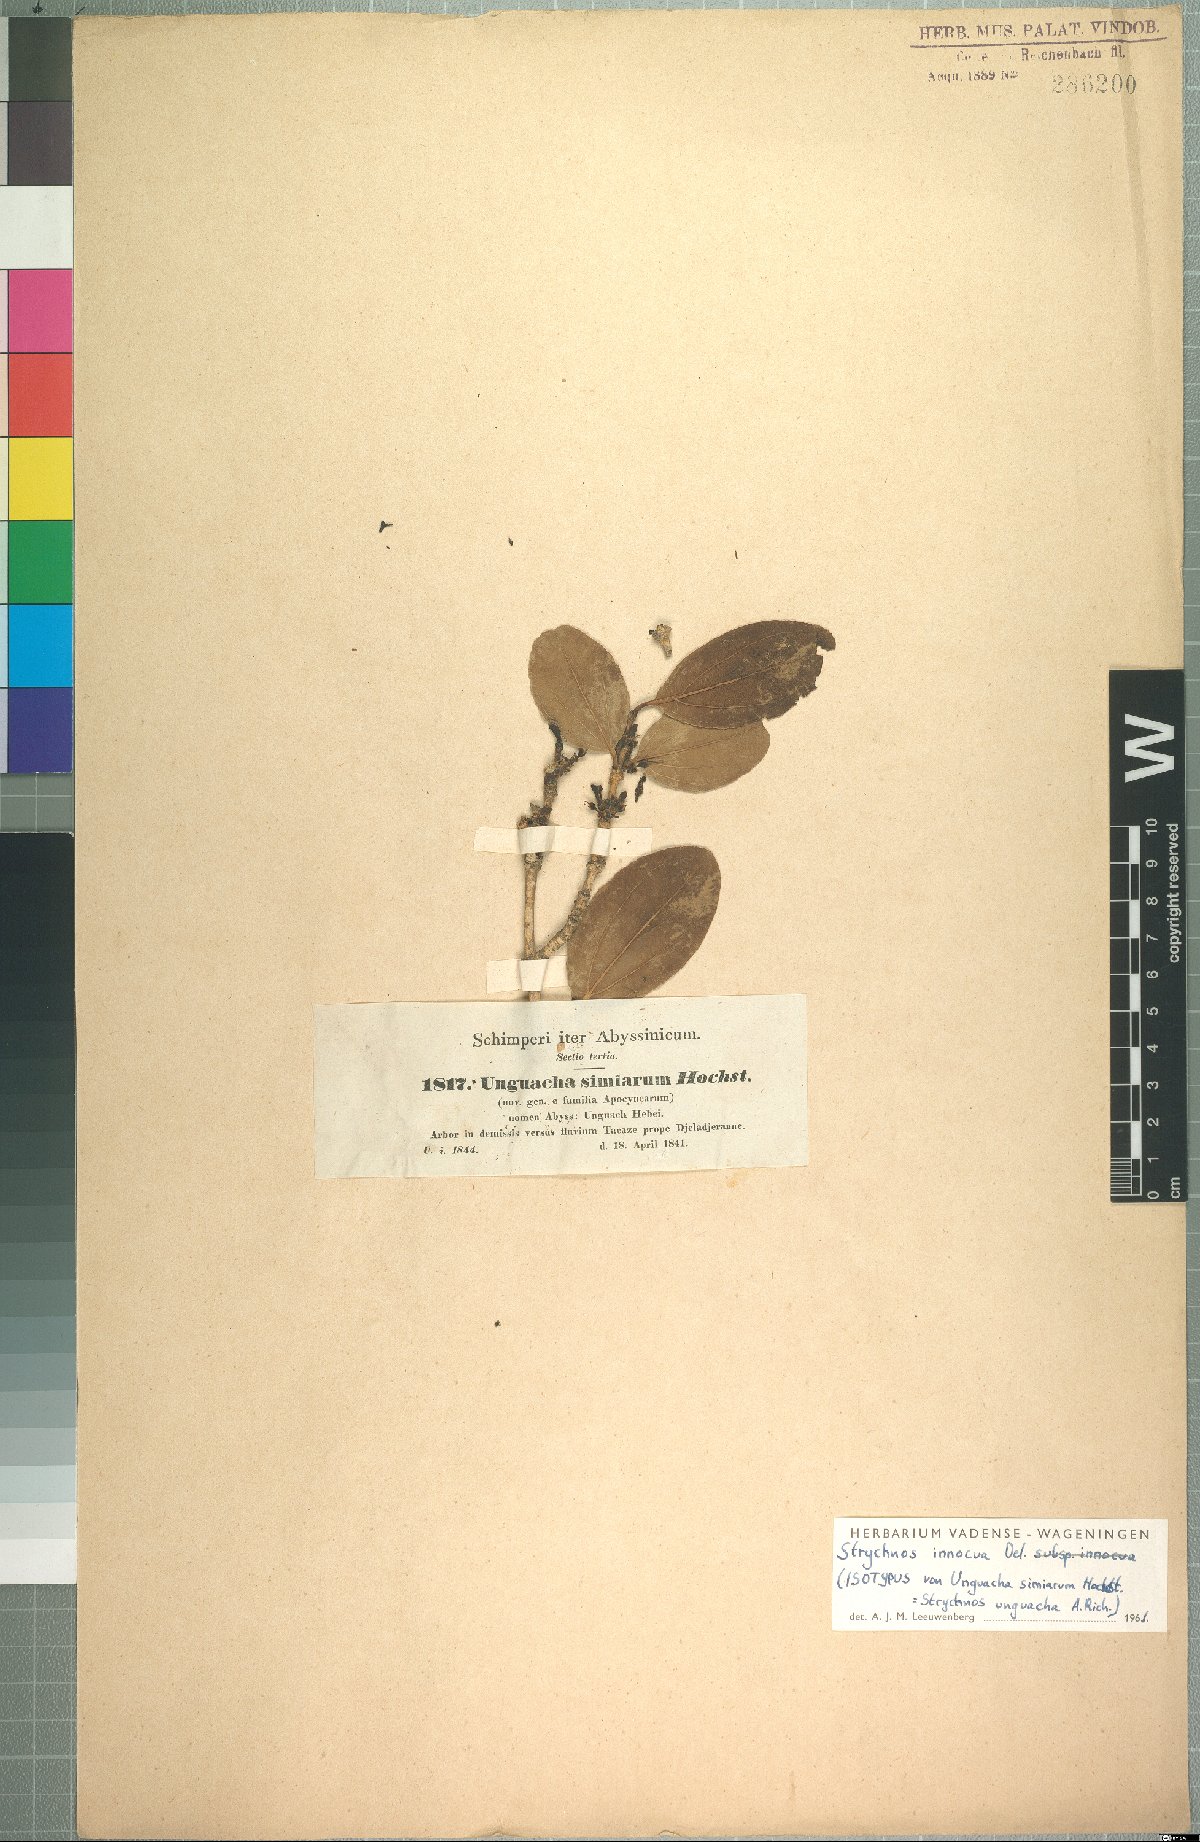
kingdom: Plantae
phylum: Tracheophyta
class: Magnoliopsida
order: Gentianales
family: Loganiaceae
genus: Strychnos
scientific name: Strychnos innocua
